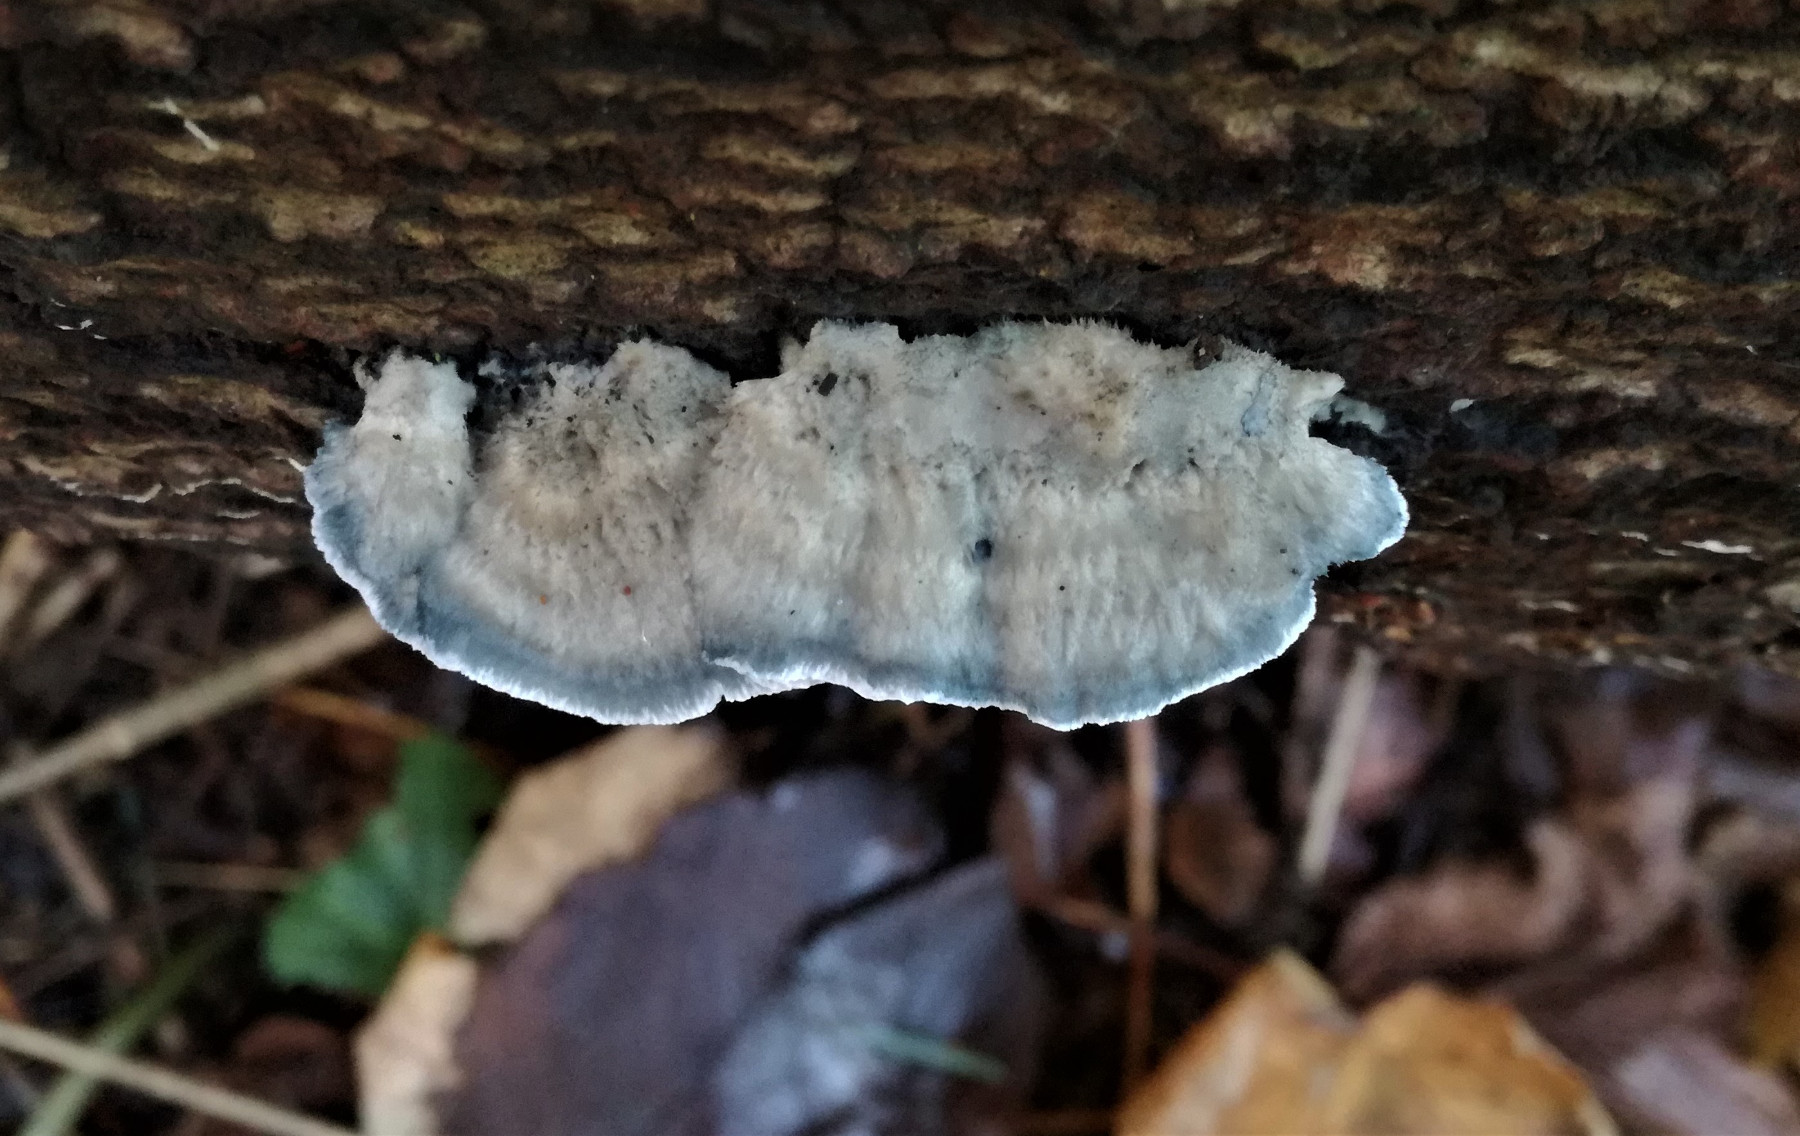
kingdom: Fungi
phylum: Basidiomycota
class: Agaricomycetes
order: Polyporales
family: Polyporaceae
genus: Cyanosporus
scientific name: Cyanosporus caesius
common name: blålig kødporesvamp
